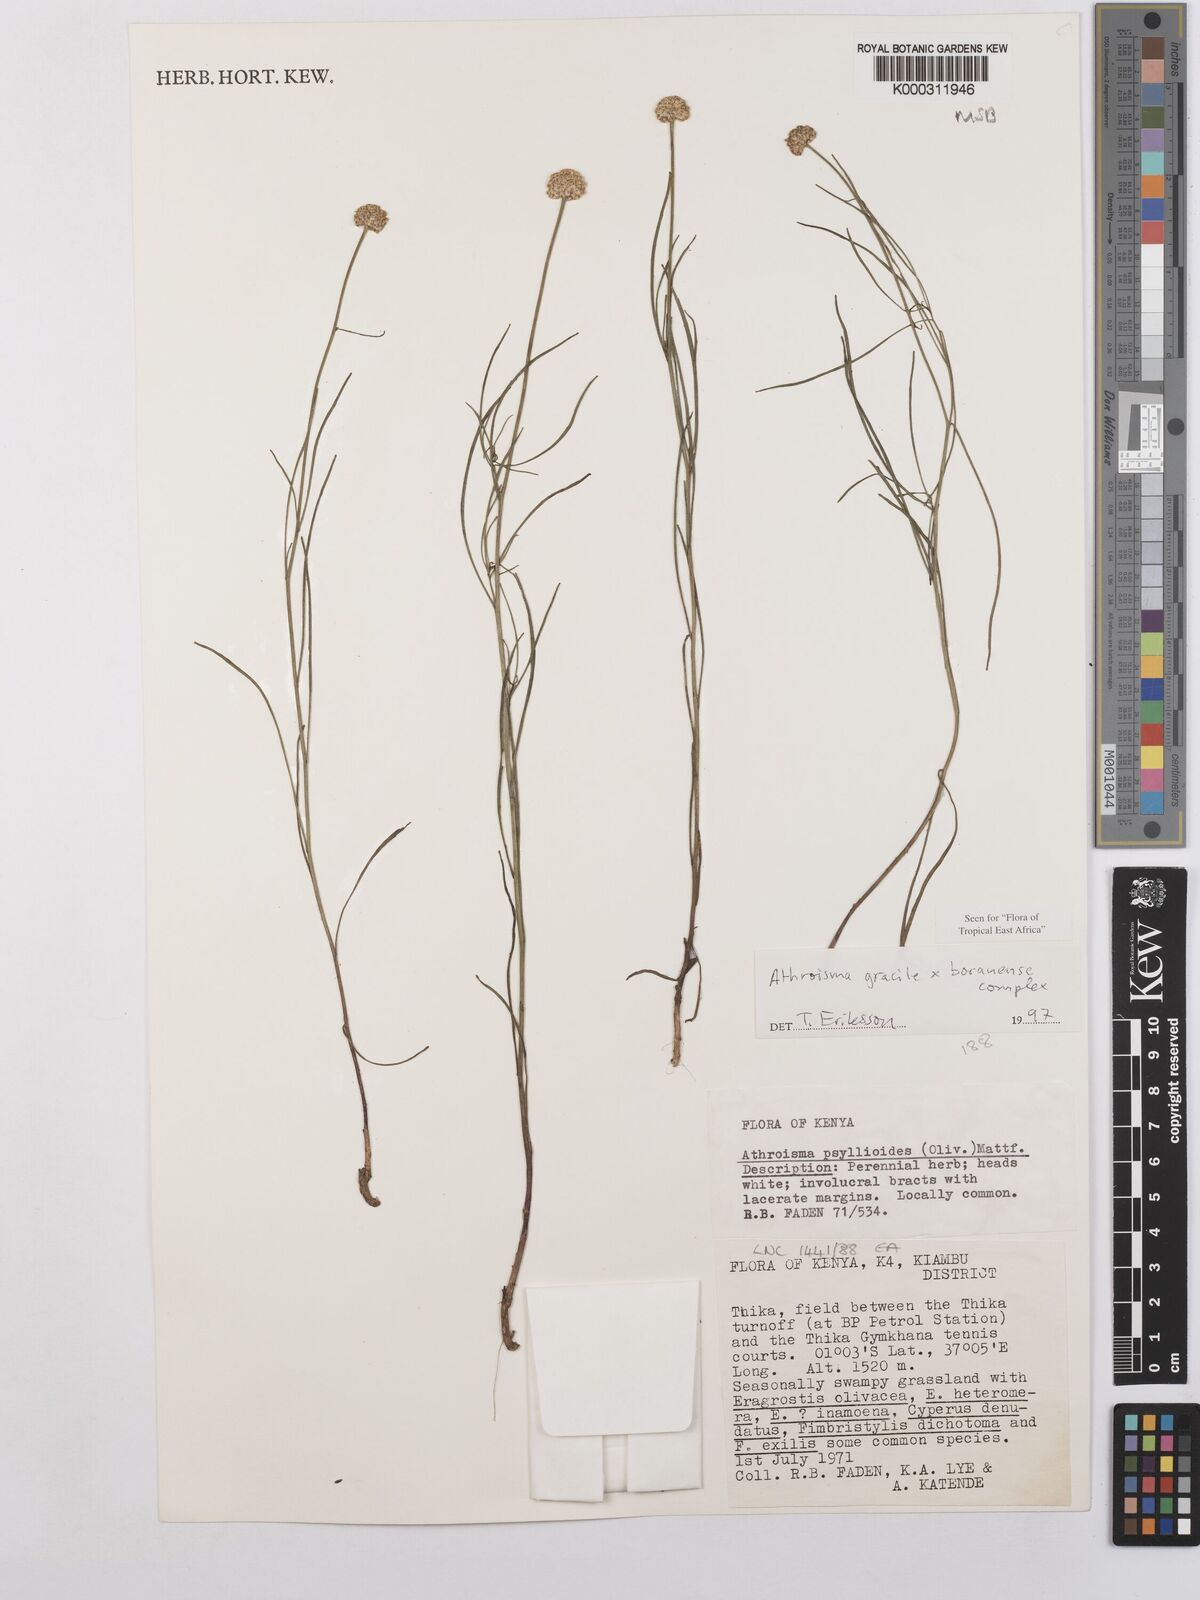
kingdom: Plantae
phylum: Tracheophyta
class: Magnoliopsida
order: Asterales
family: Asteraceae
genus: Athroisma
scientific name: Athroisma
